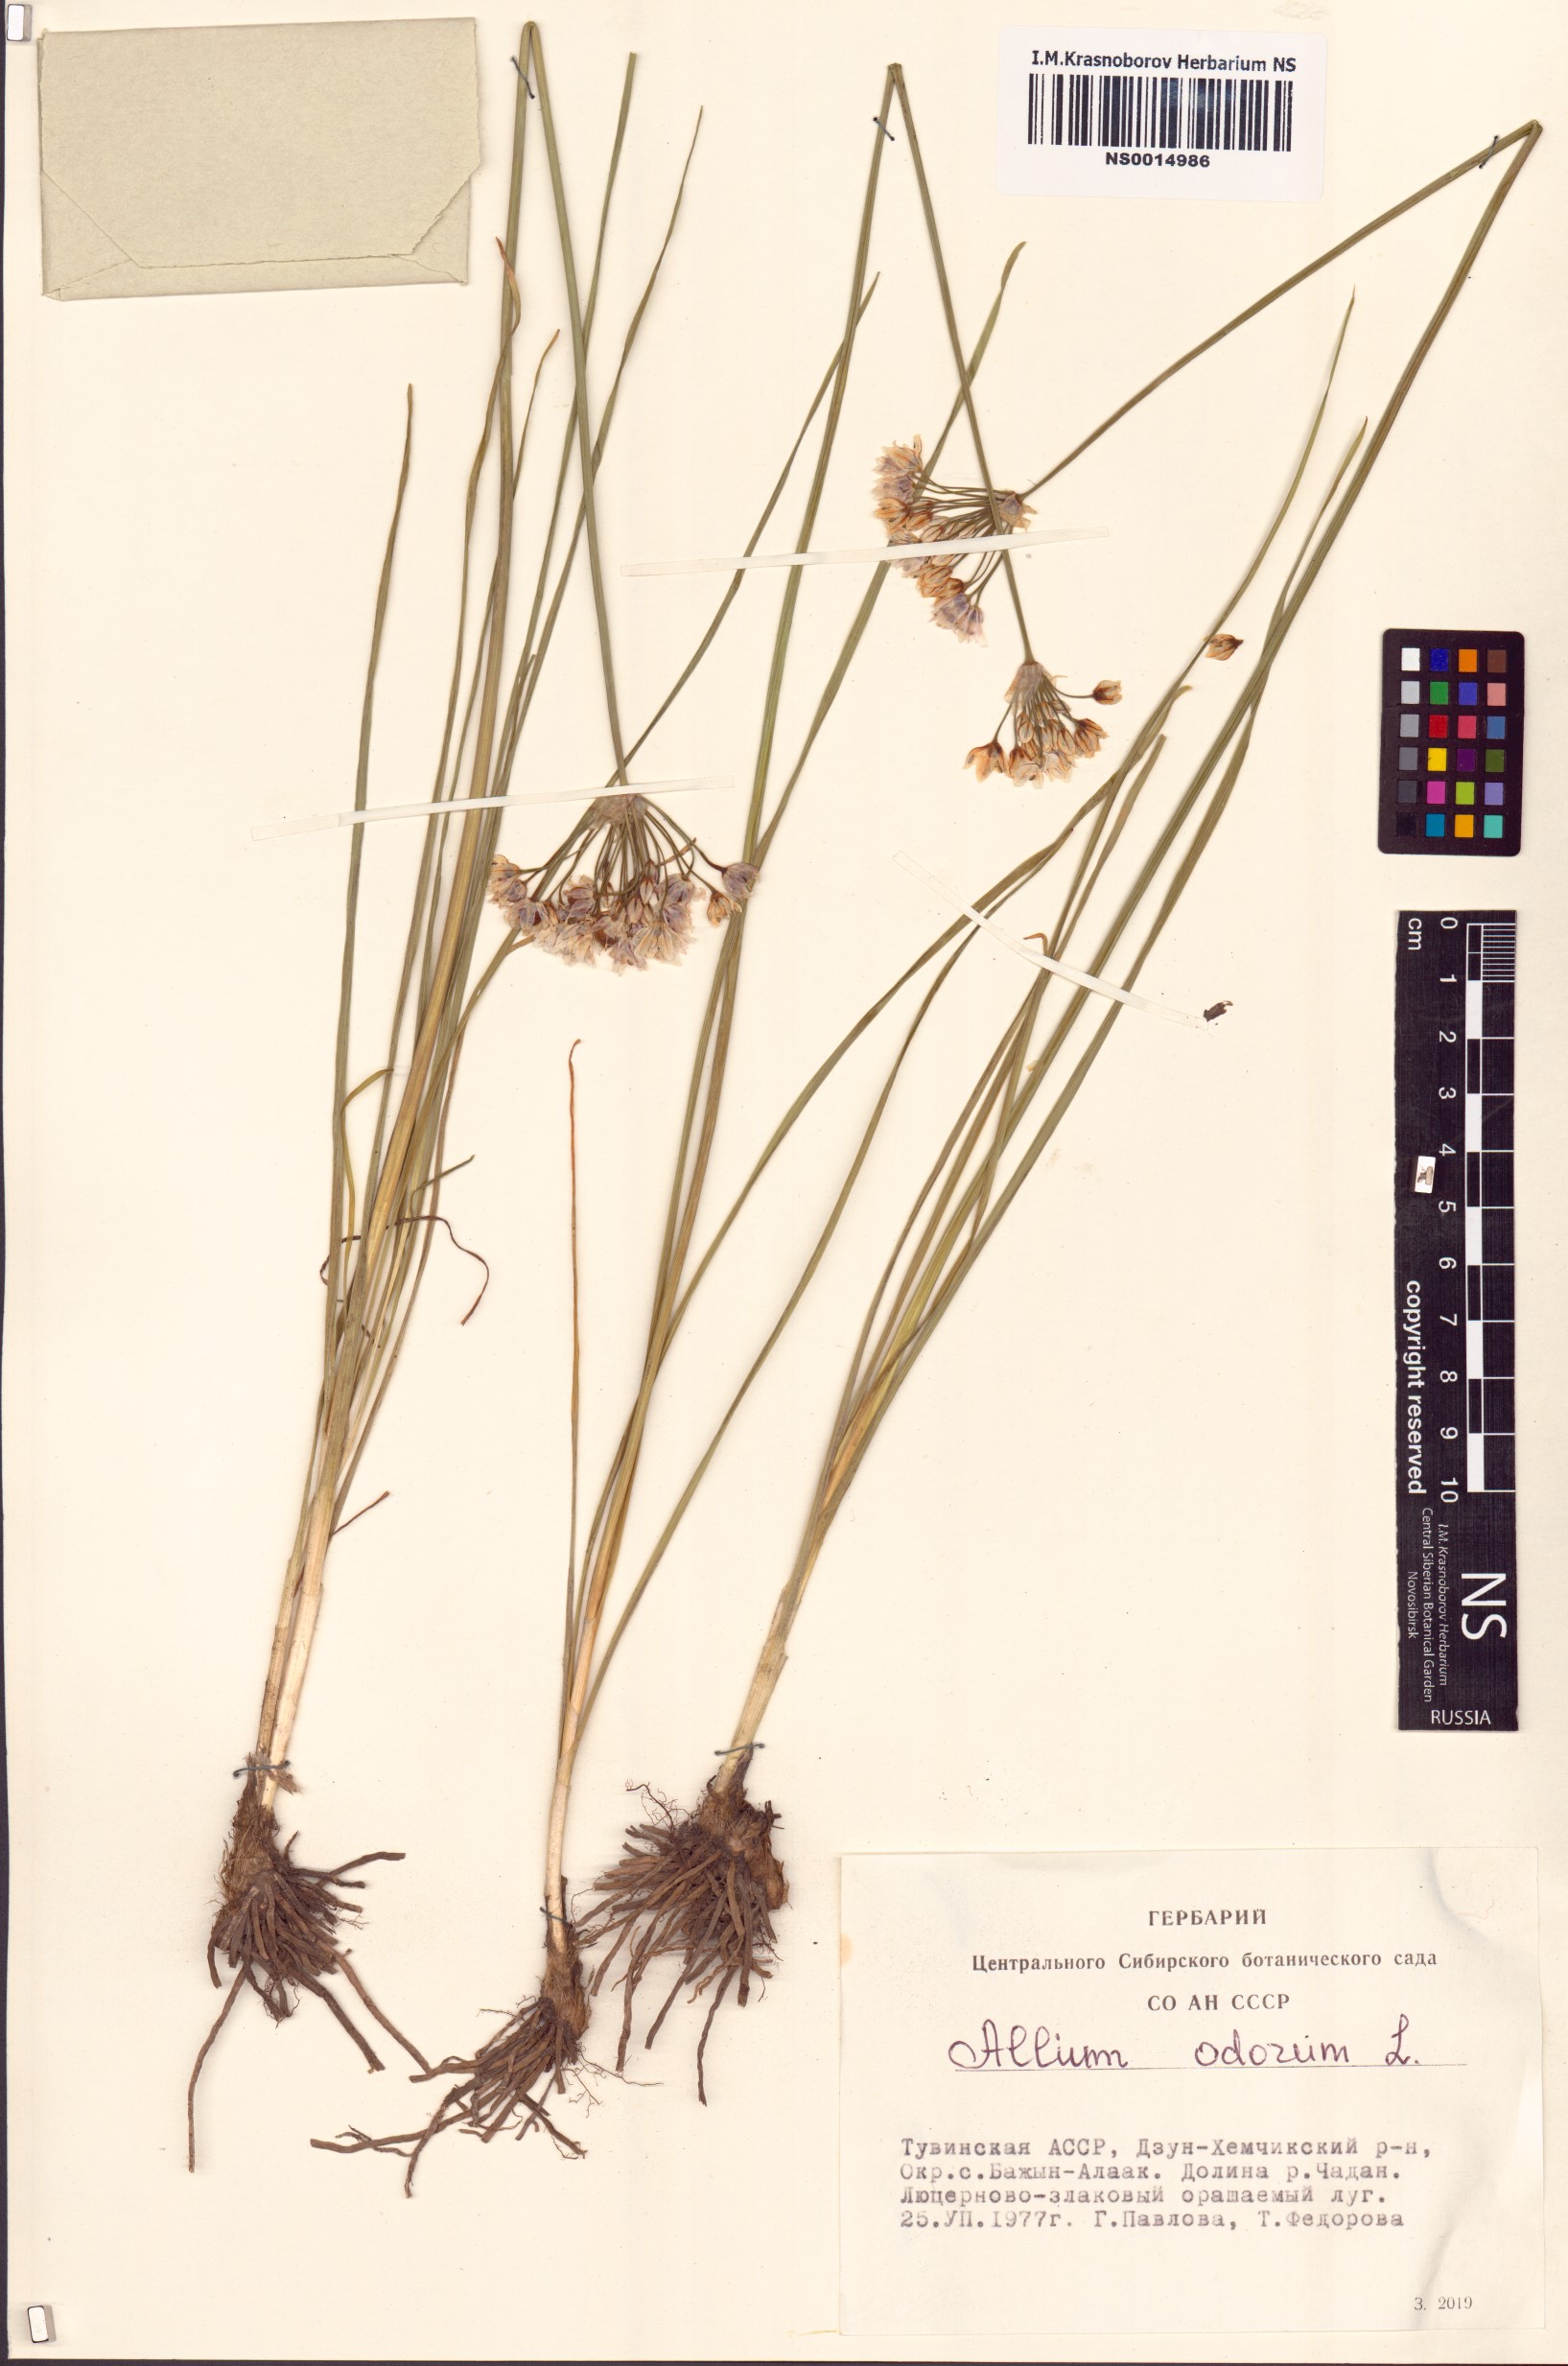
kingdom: Plantae
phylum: Tracheophyta
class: Liliopsida
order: Asparagales
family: Amaryllidaceae
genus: Allium
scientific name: Allium ramosum
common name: Fragrant garlic
